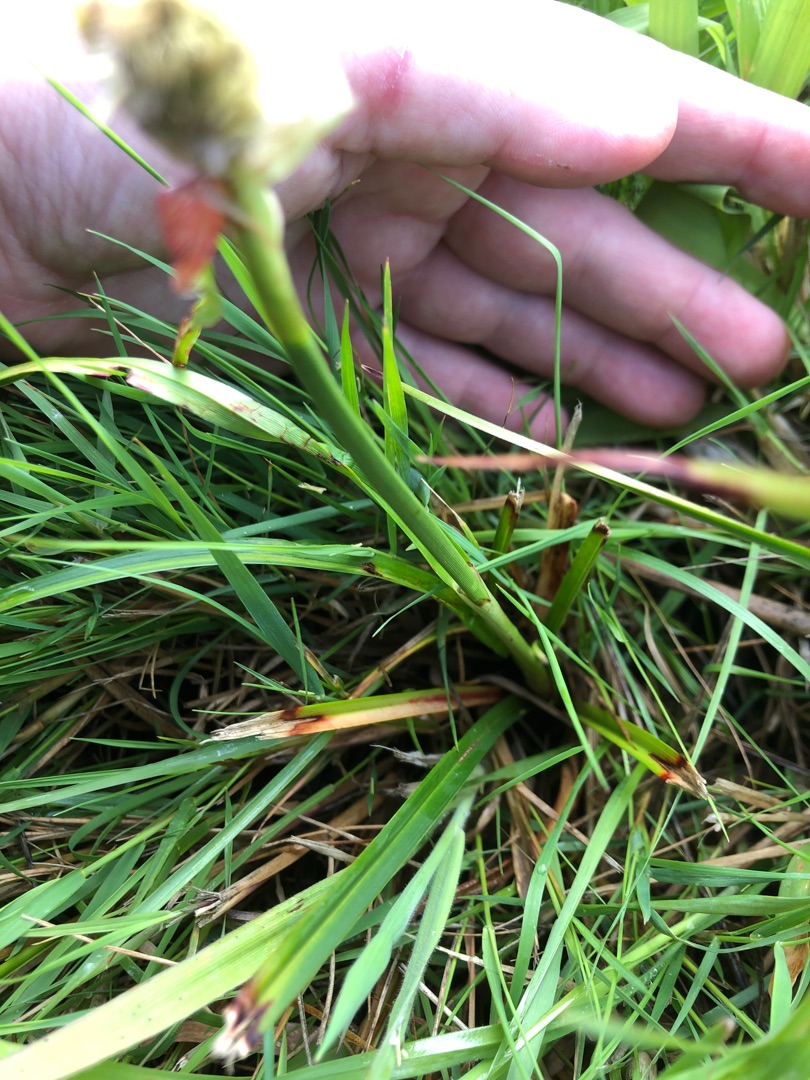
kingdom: Plantae
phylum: Tracheophyta
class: Liliopsida
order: Poales
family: Cyperaceae
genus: Bolboschoenus
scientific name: Bolboschoenus maritimus
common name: Strand-kogleaks
